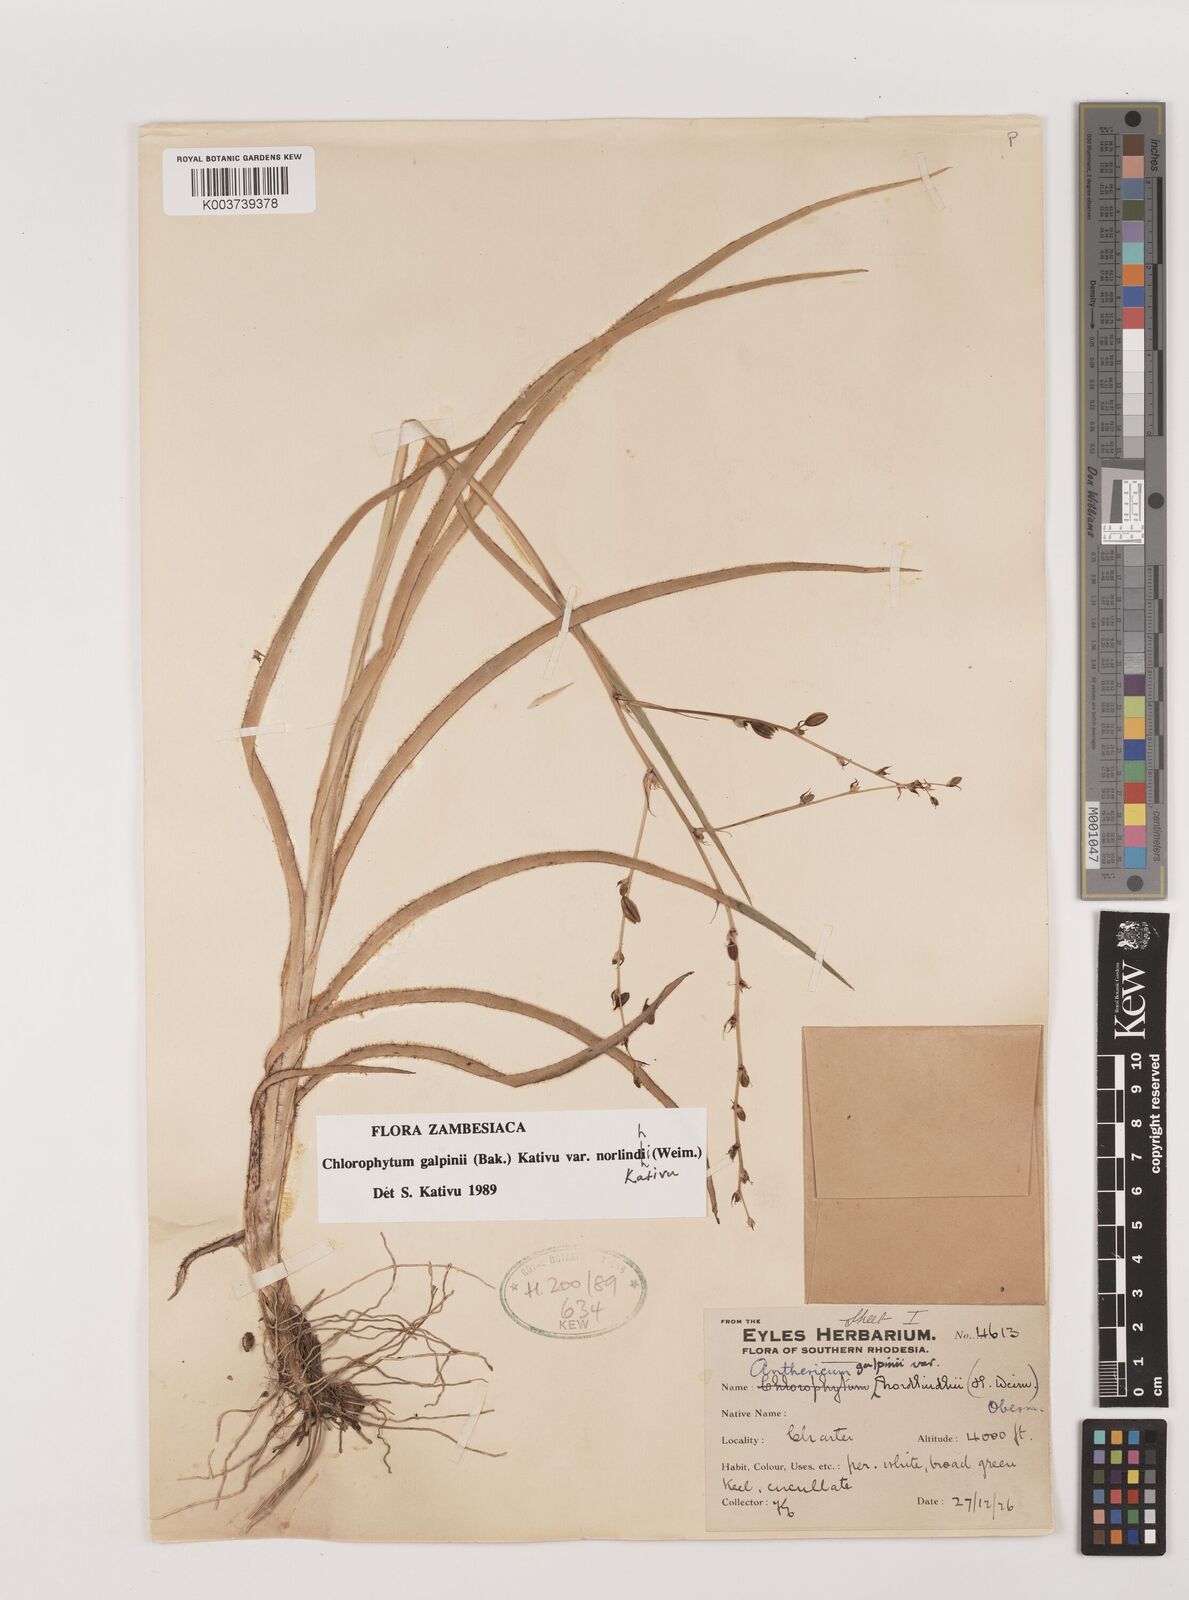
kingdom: Plantae
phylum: Tracheophyta
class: Liliopsida
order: Asparagales
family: Asparagaceae
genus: Chlorophytum
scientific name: Chlorophytum galpinii
